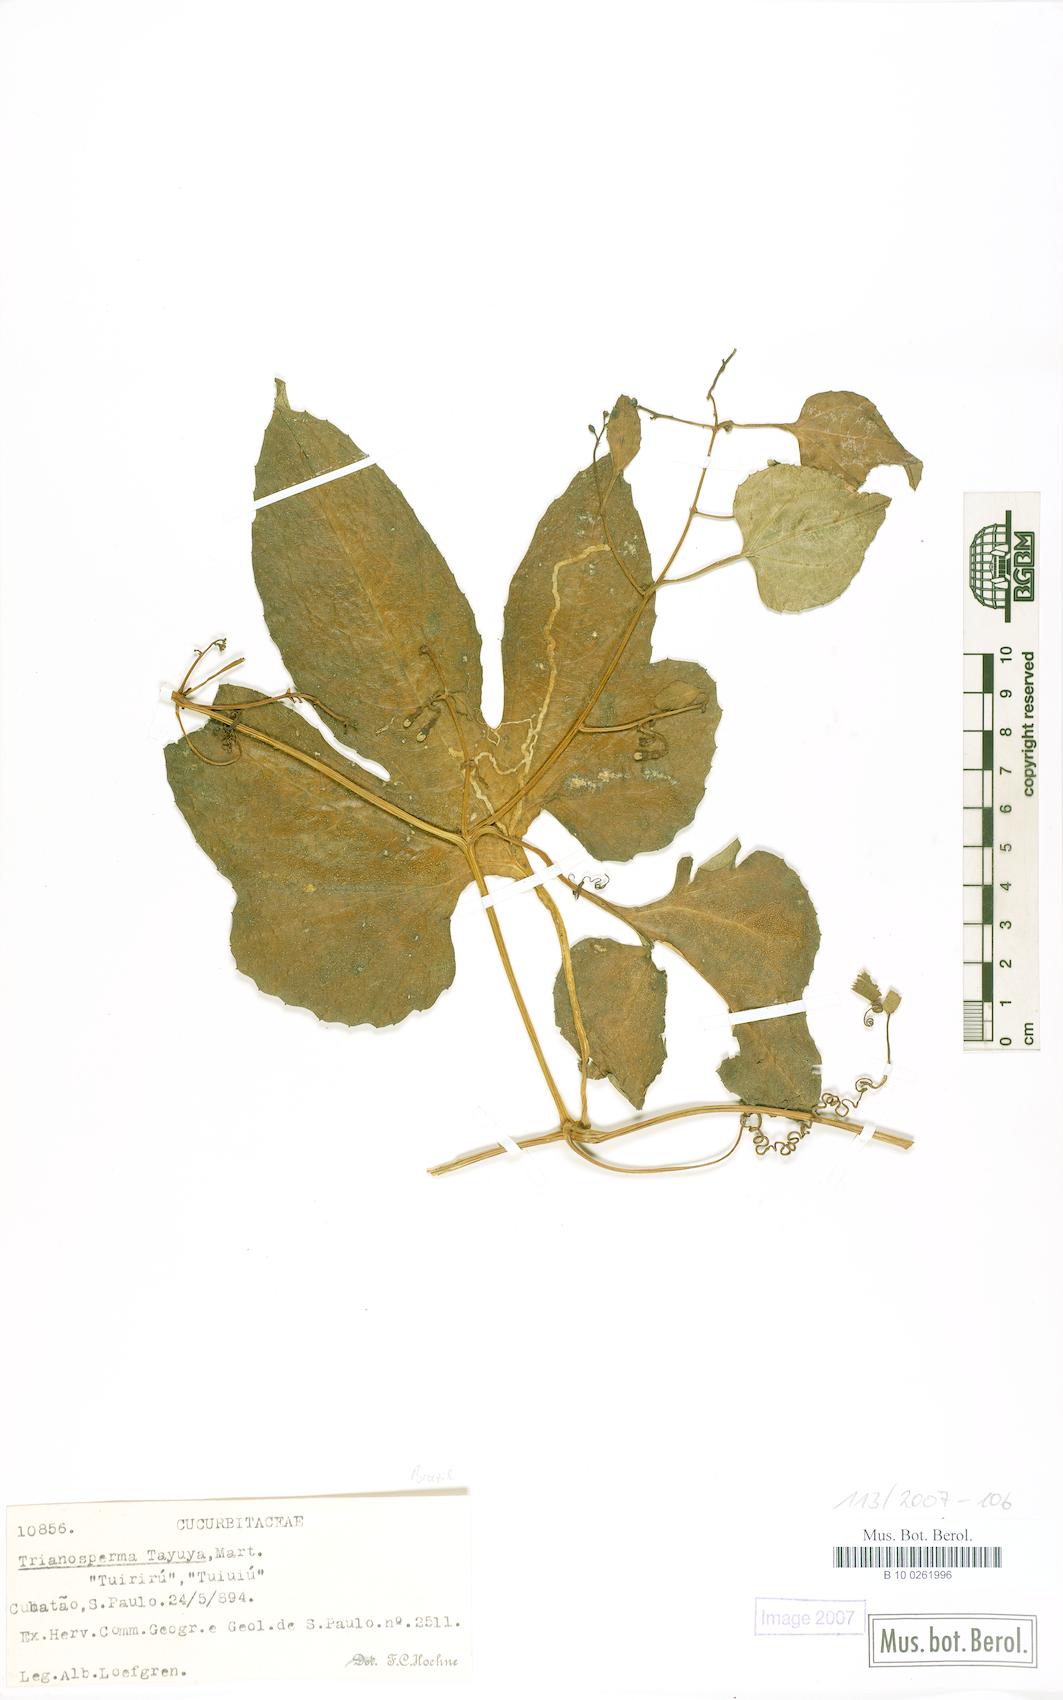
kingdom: Plantae
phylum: Tracheophyta
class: Magnoliopsida
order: Cucurbitales
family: Cucurbitaceae
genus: Cayaponia
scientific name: Cayaponia tayuya
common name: Tayuya
